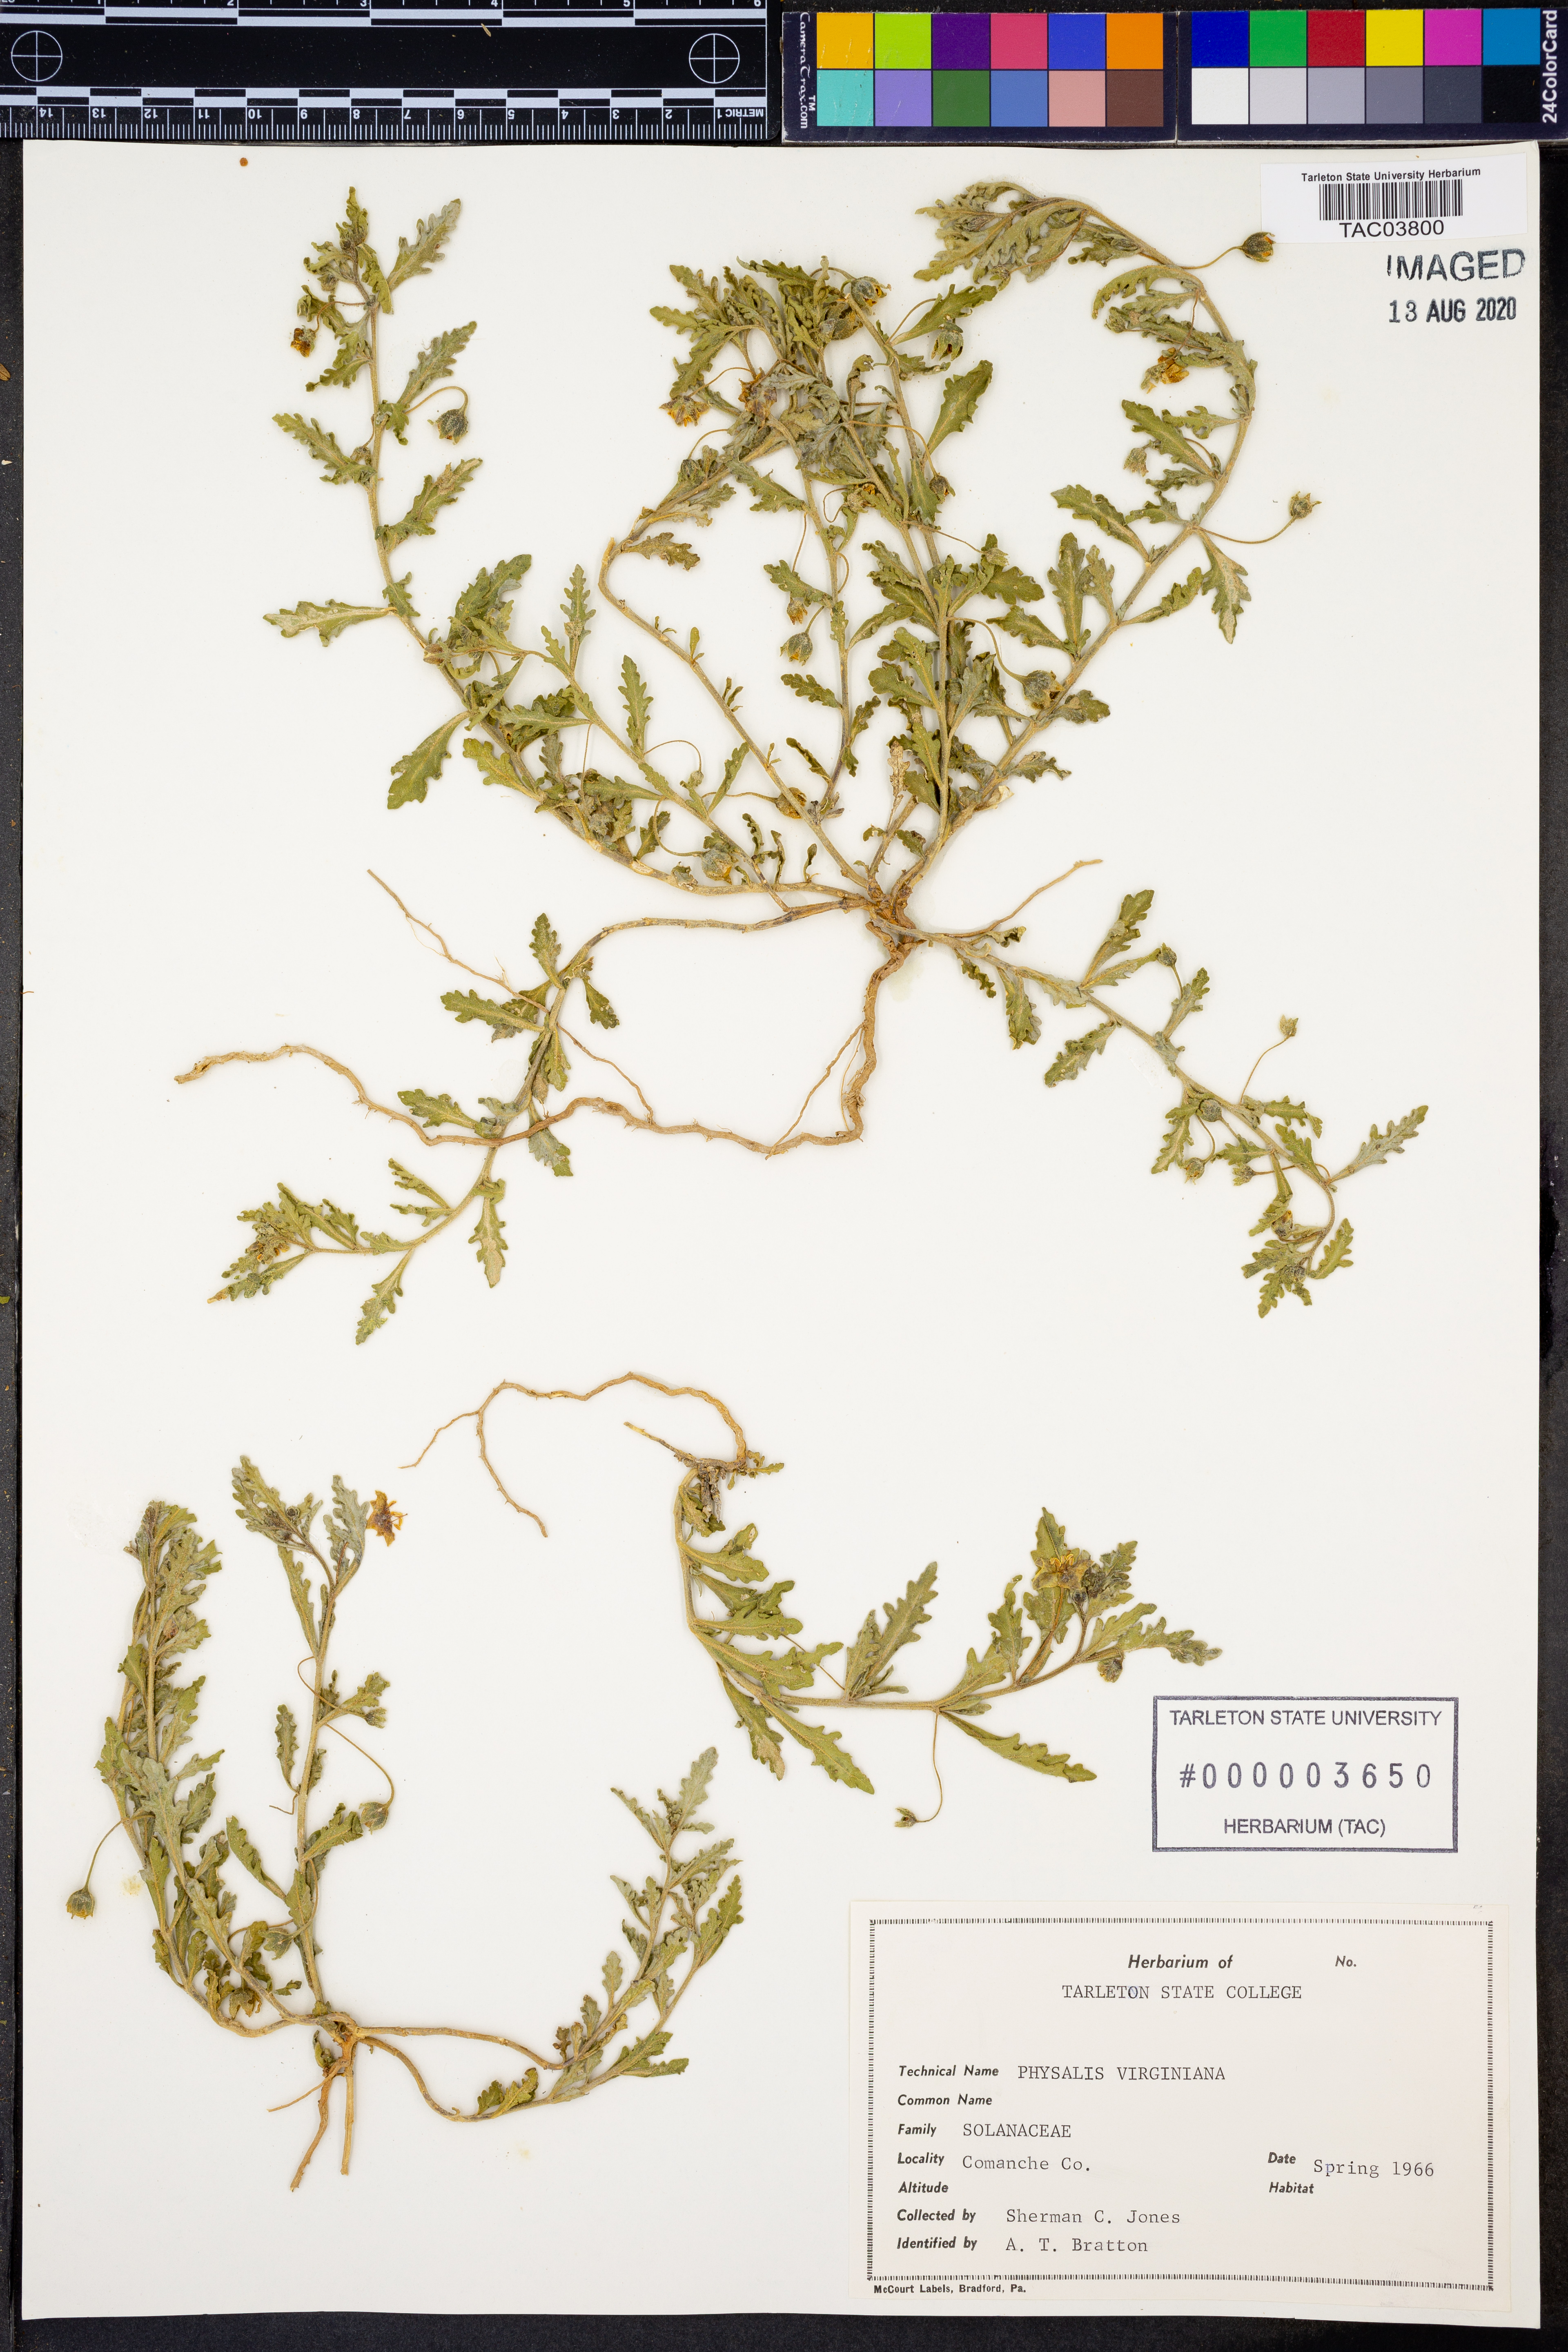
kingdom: Plantae
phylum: Tracheophyta
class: Magnoliopsida
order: Solanales
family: Solanaceae
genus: Physalis
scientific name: Physalis virginiana
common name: Virginia ground-cherry
